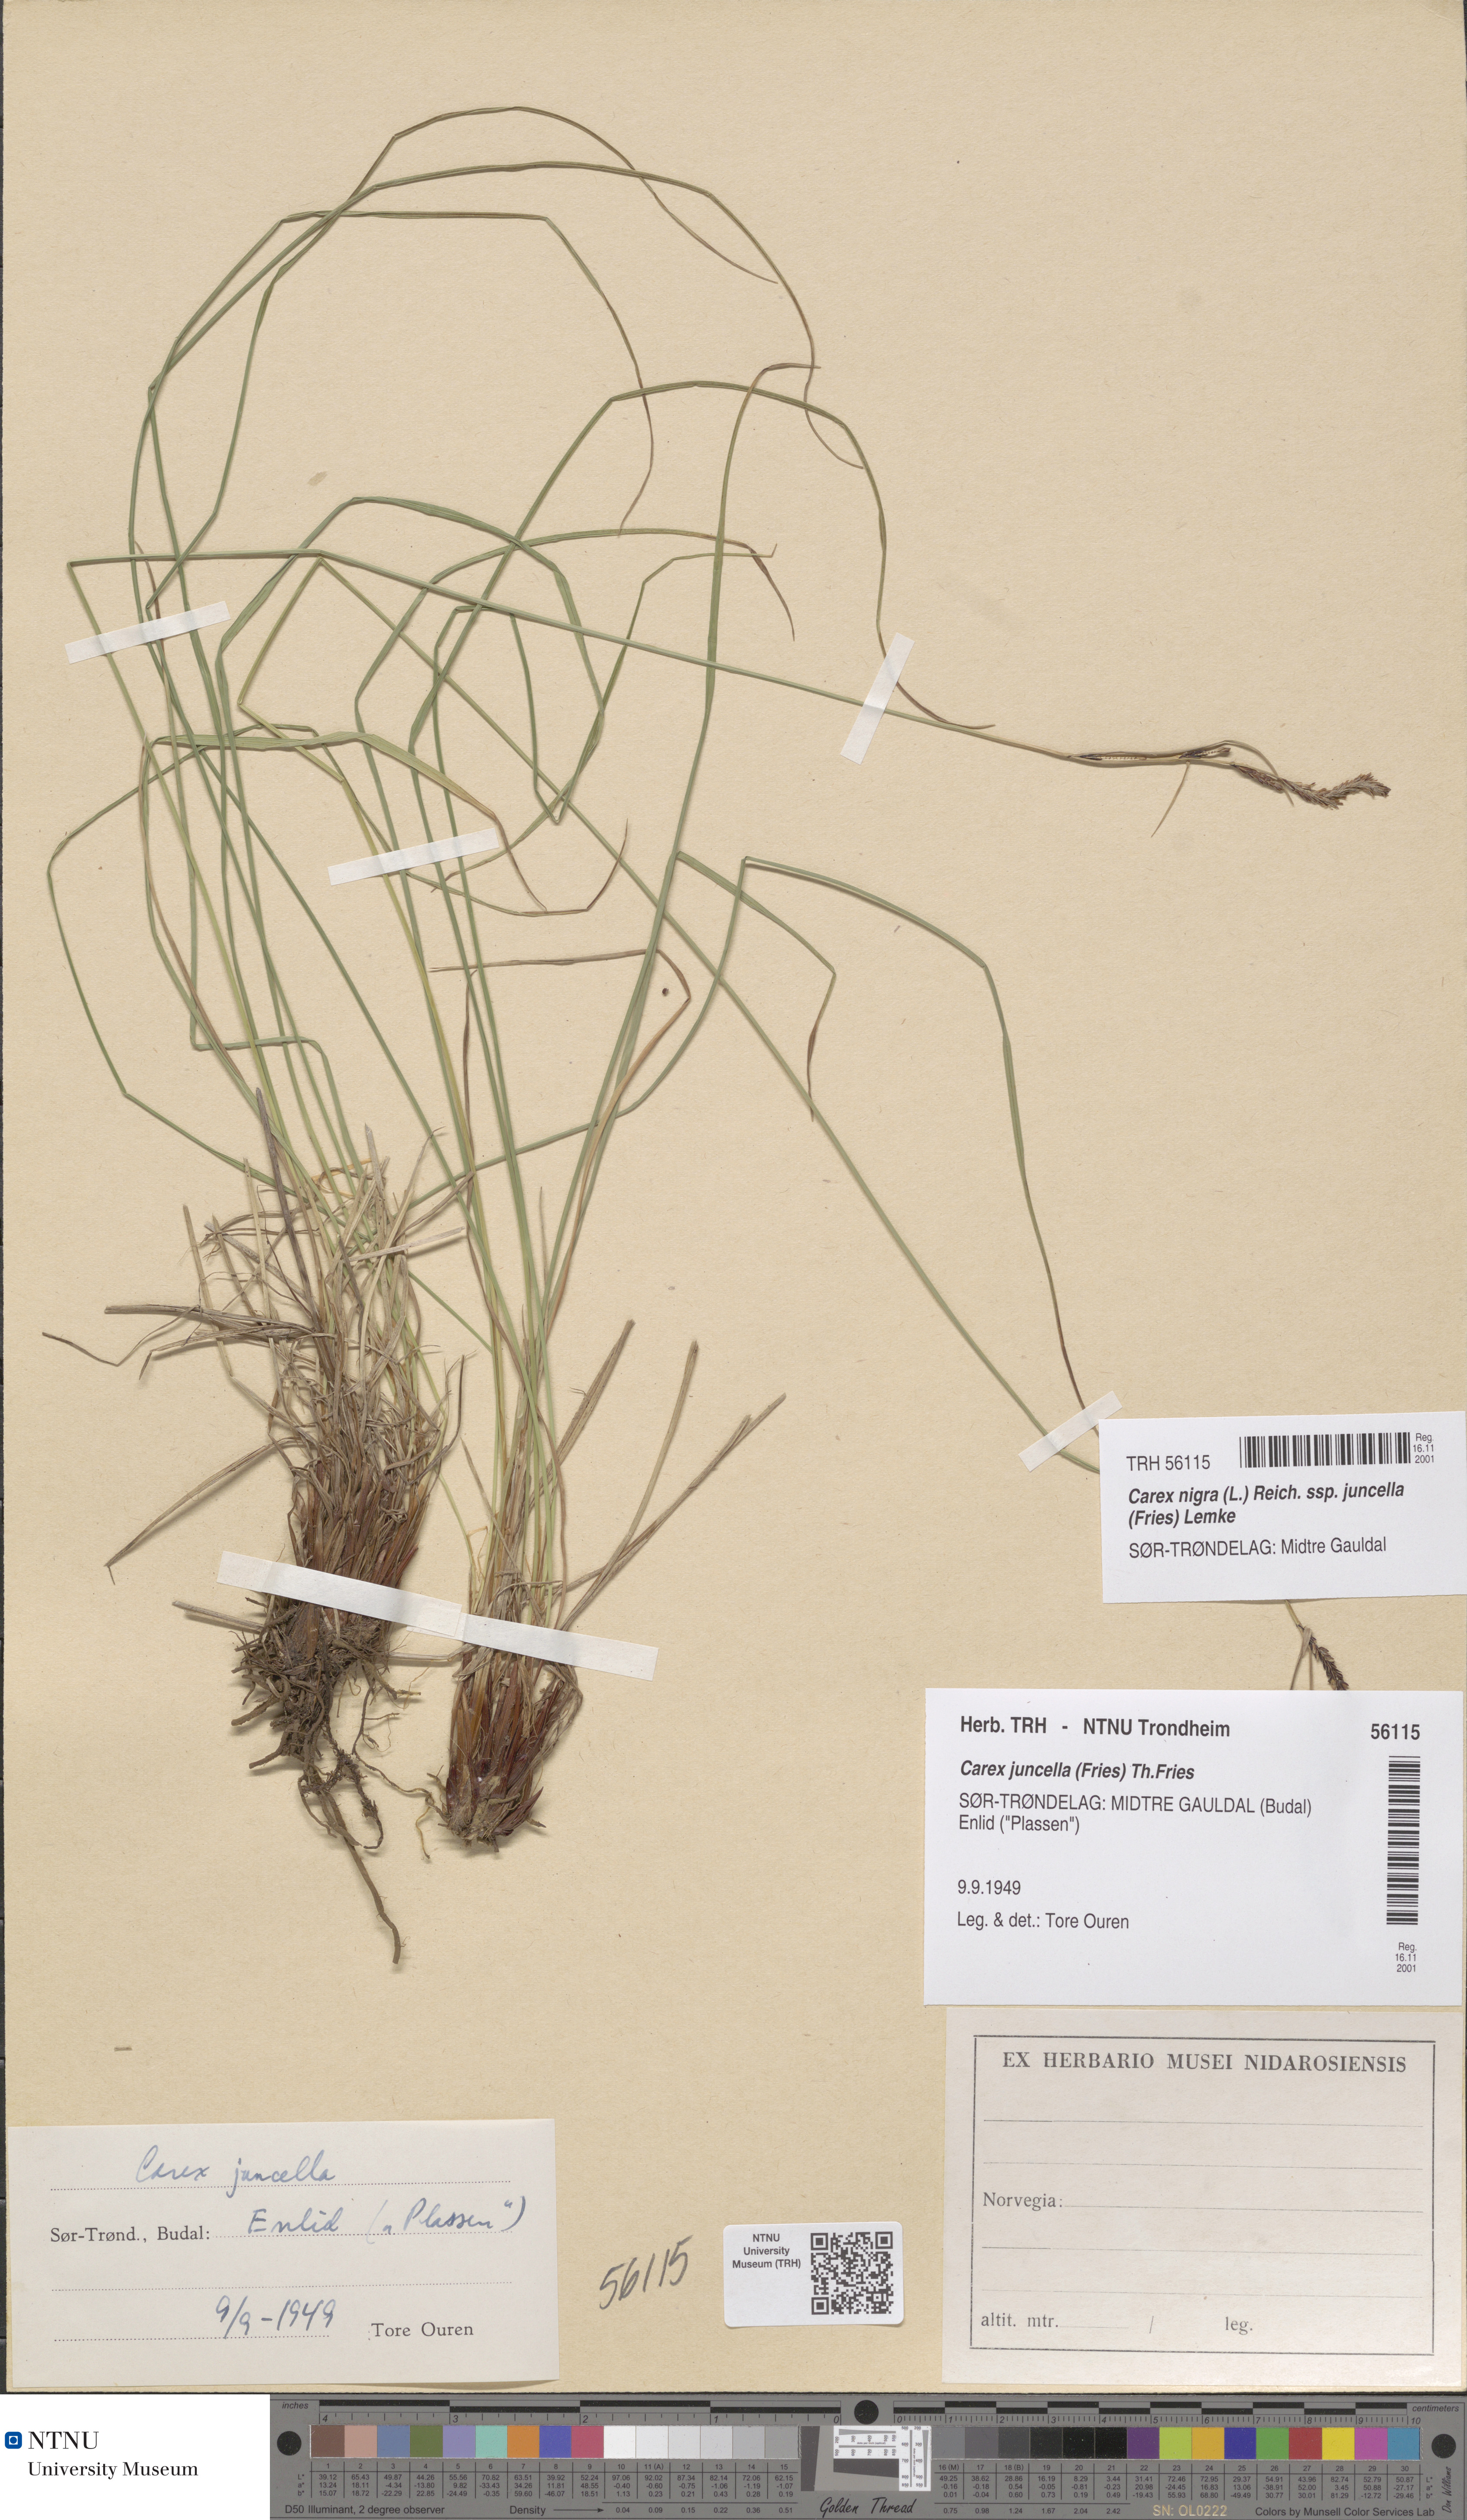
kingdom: Plantae
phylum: Tracheophyta
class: Liliopsida
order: Poales
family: Cyperaceae
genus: Carex
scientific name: Carex nigra
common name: Common sedge
